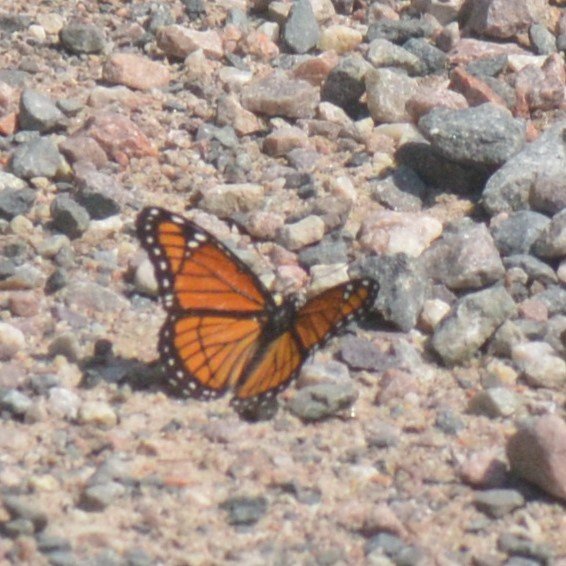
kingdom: Animalia
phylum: Arthropoda
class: Insecta
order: Lepidoptera
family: Nymphalidae
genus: Limenitis
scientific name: Limenitis archippus
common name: Viceroy
